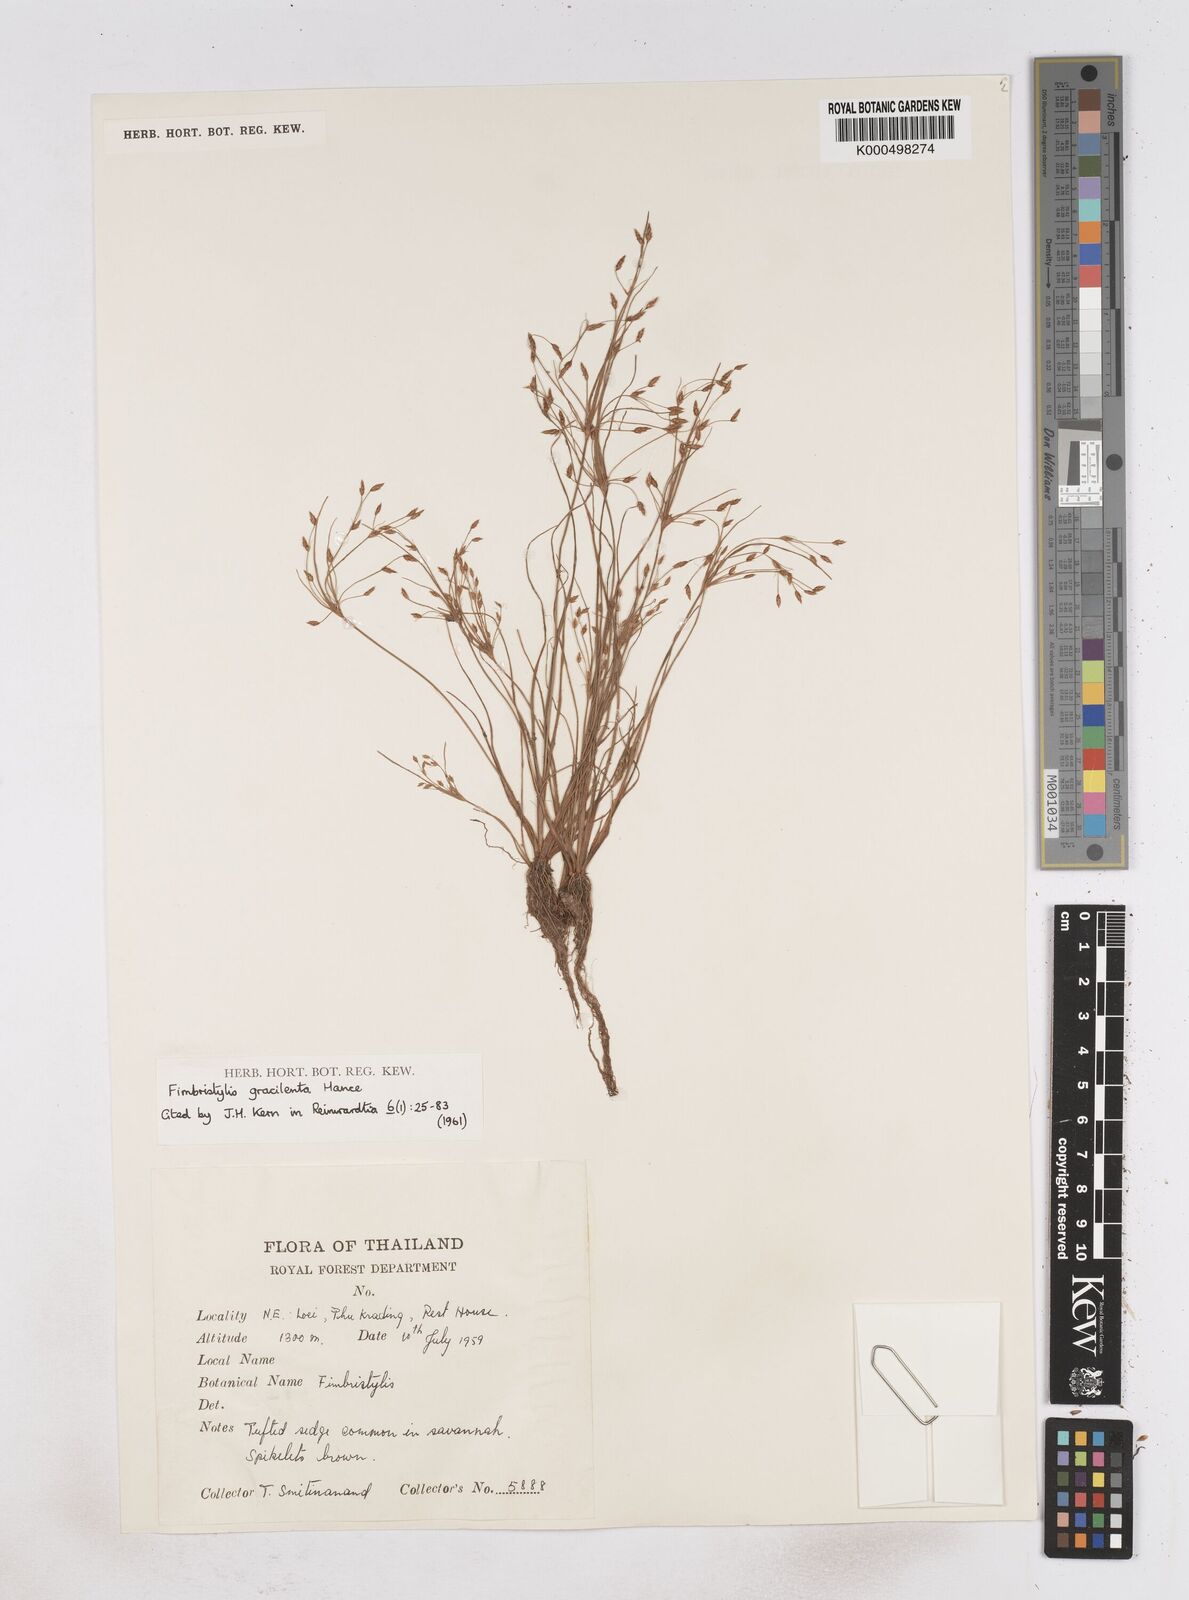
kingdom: Plantae
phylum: Tracheophyta
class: Liliopsida
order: Poales
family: Cyperaceae
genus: Fimbristylis
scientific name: Fimbristylis gracilenta
